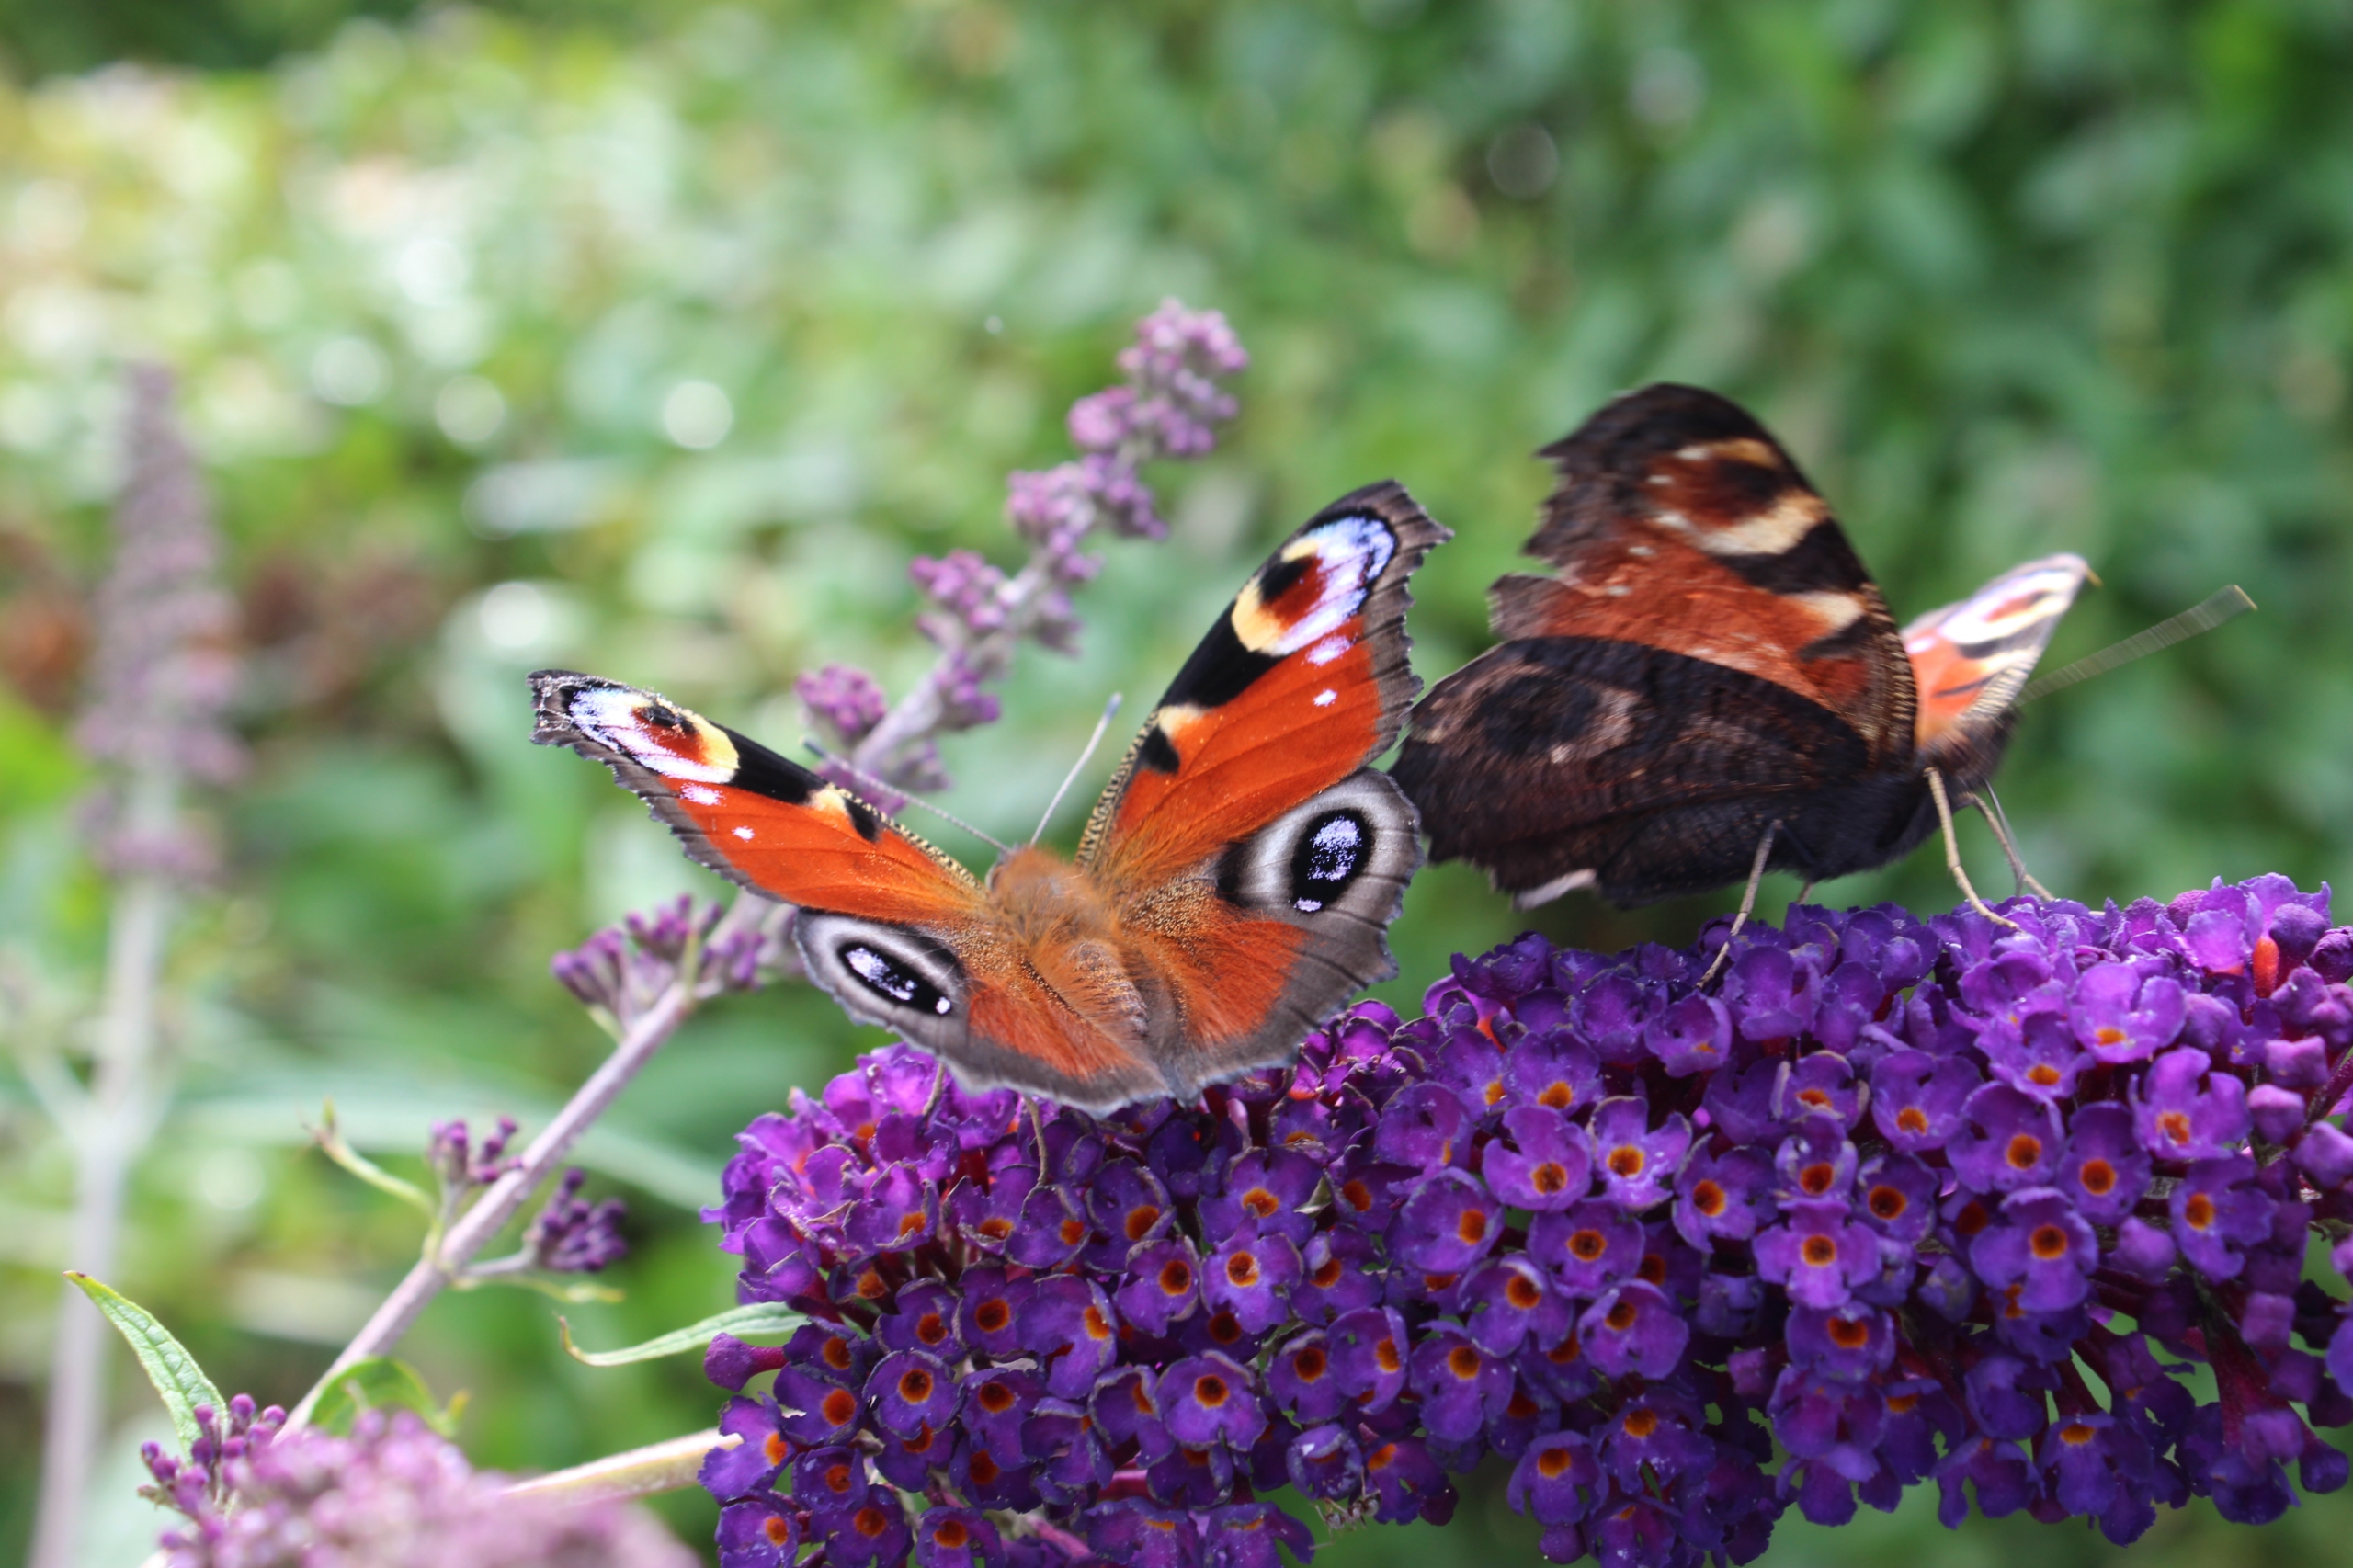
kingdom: Animalia
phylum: Arthropoda
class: Insecta
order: Lepidoptera
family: Nymphalidae
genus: Aglais
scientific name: Aglais io
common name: Dagpåfugleøje
